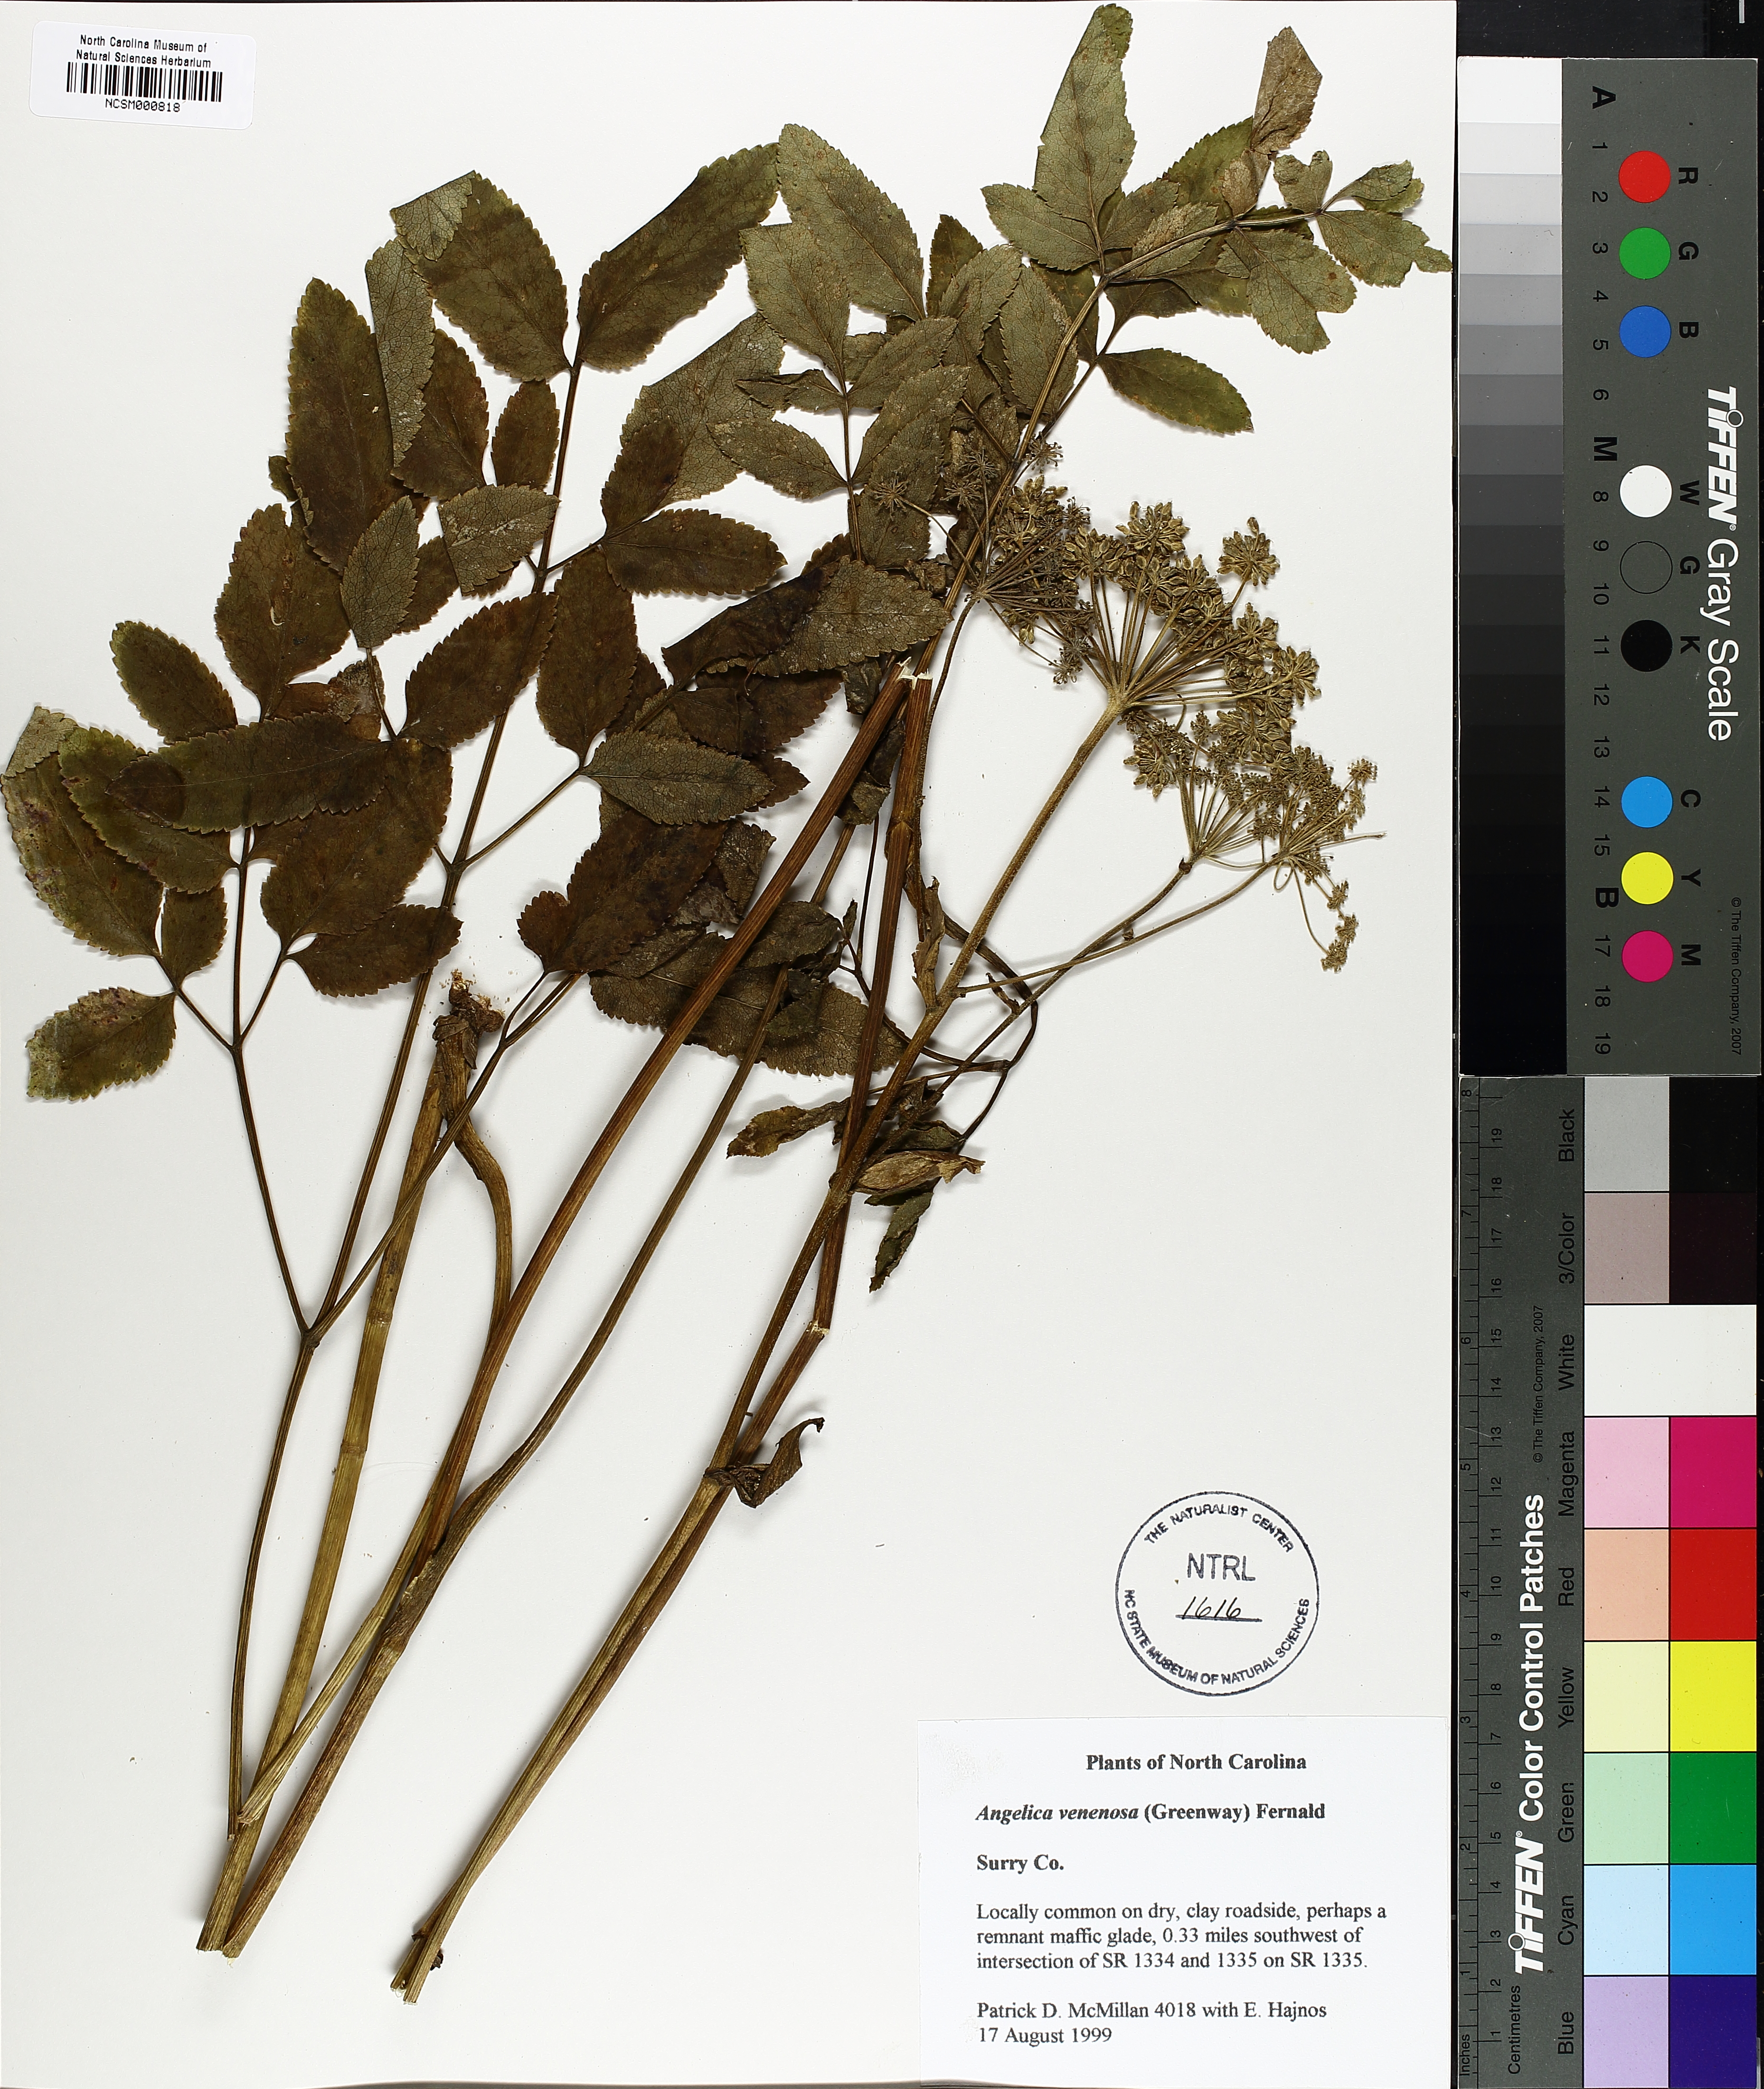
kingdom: Plantae
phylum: Tracheophyta
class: Magnoliopsida
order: Apiales
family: Apiaceae
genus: Angelica
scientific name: Angelica venenosa
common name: Hairy angelica
